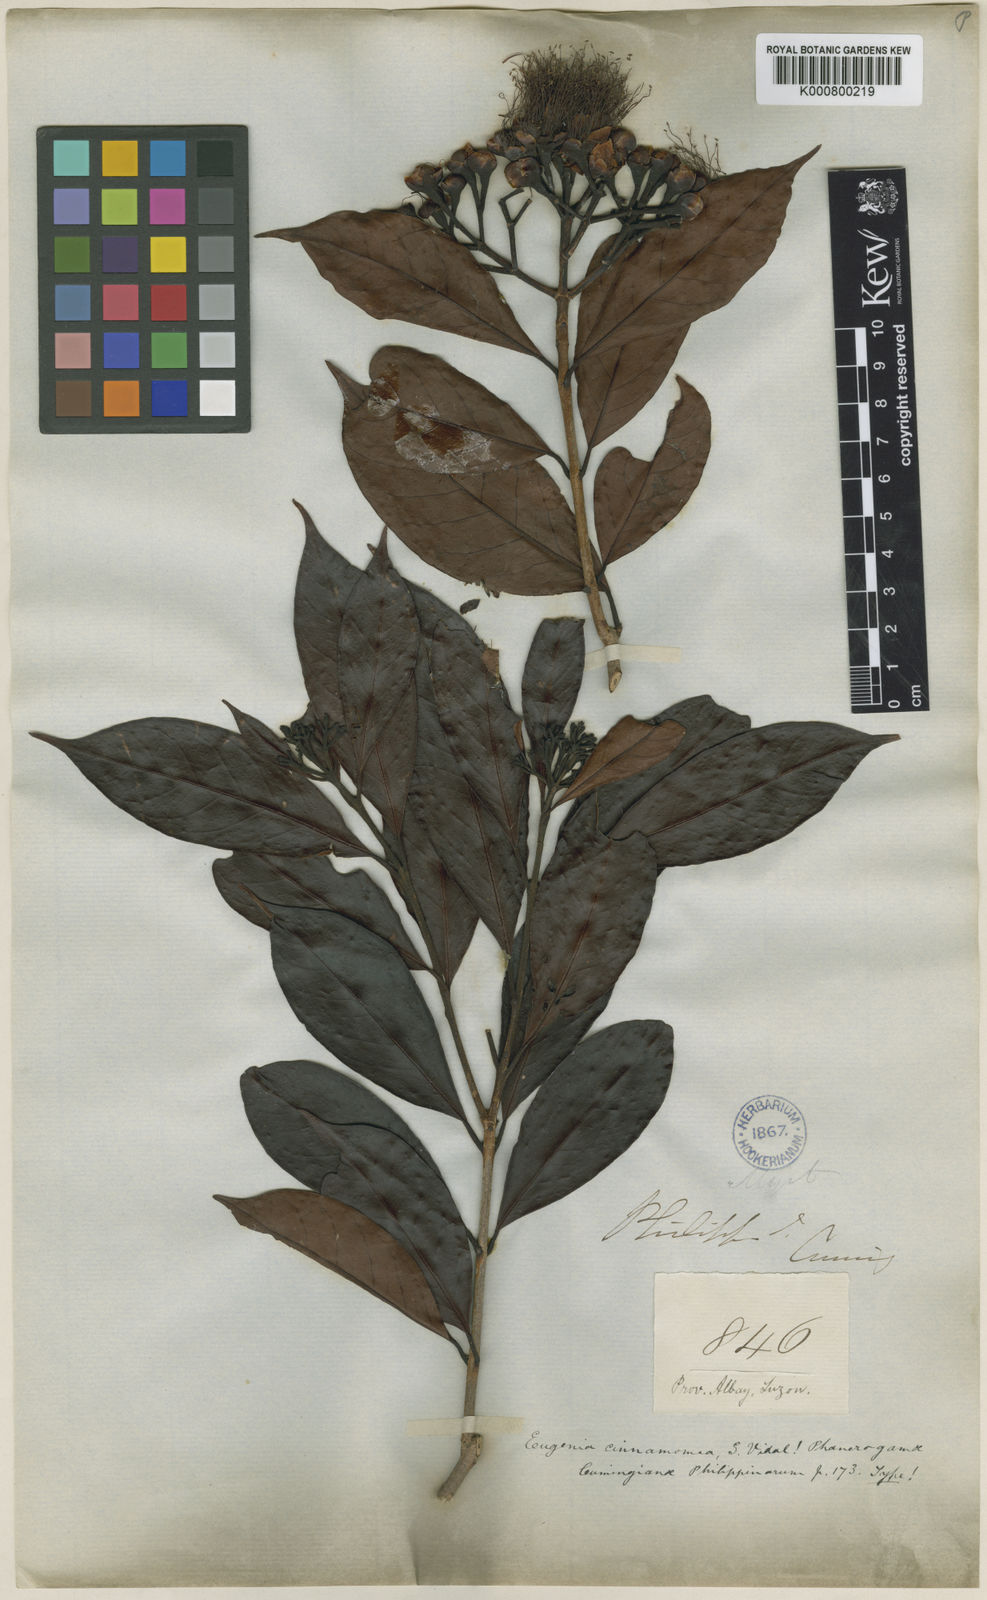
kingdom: Plantae
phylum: Tracheophyta
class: Magnoliopsida
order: Myrtales
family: Myrtaceae
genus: Syzygium
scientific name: Syzygium cinnamomeum
